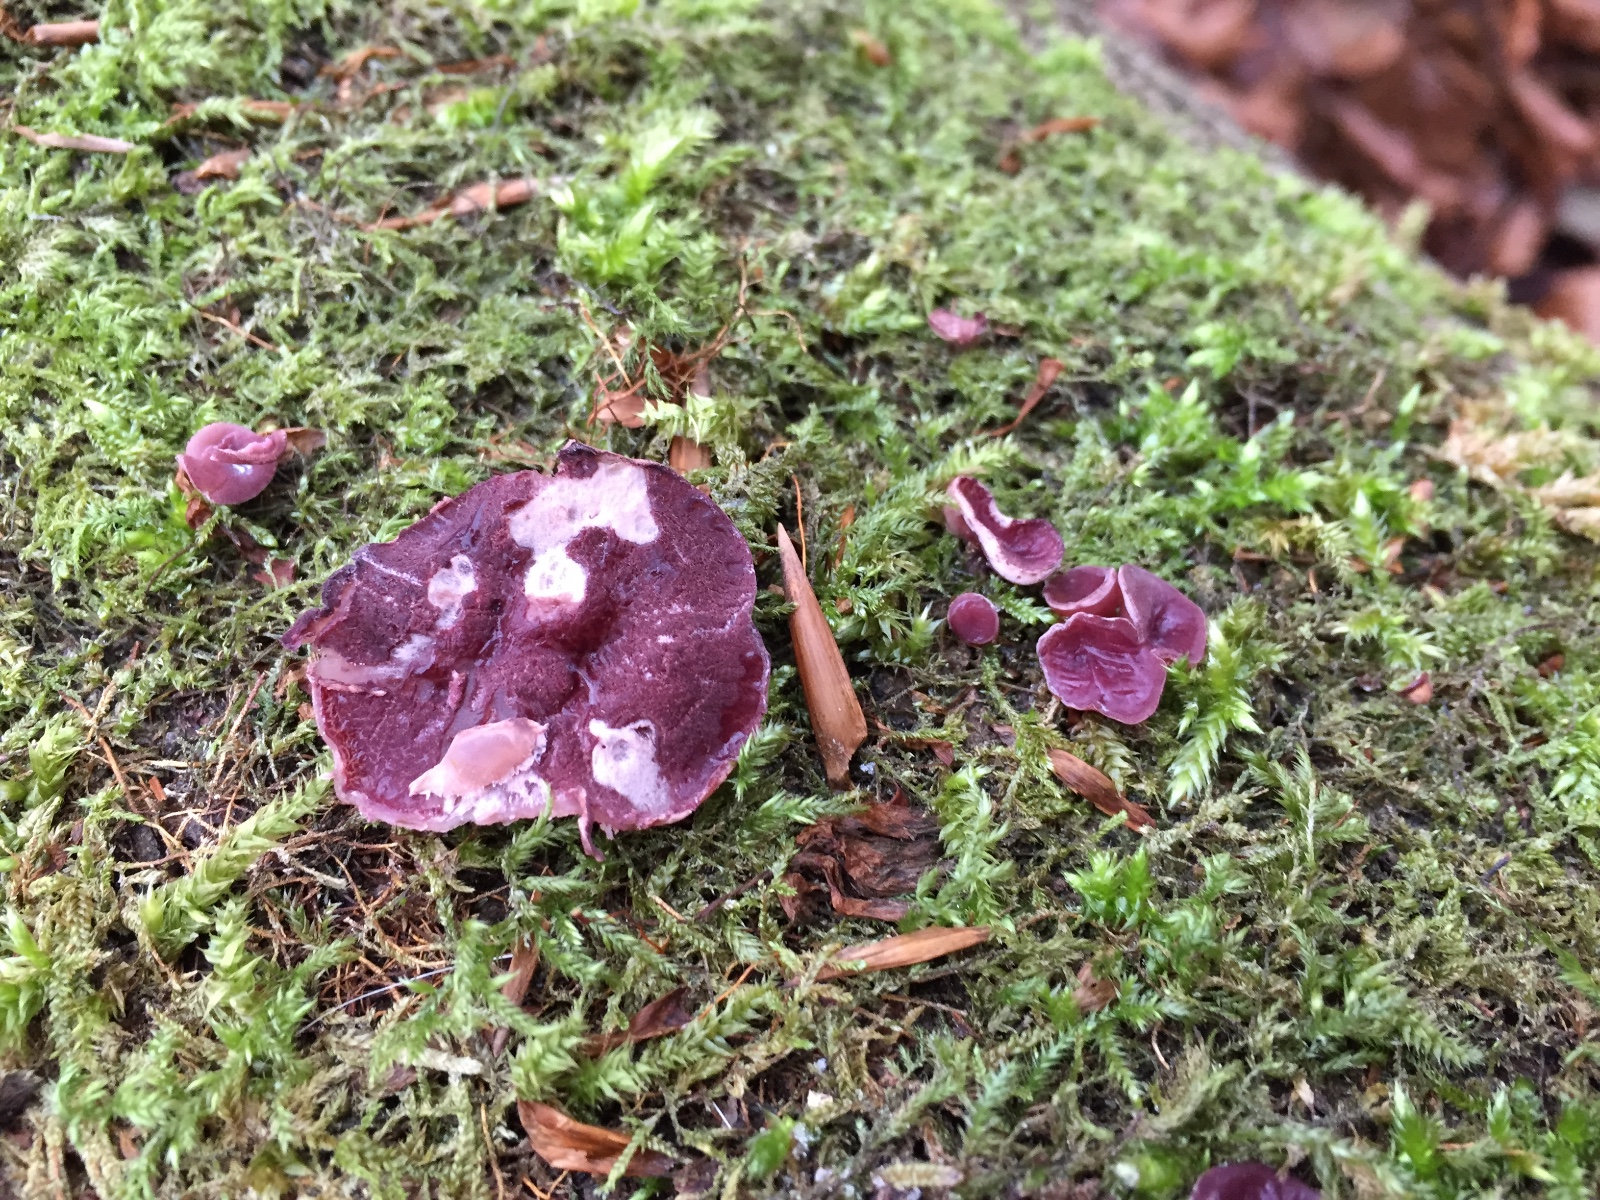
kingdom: Fungi
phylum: Ascomycota
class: Leotiomycetes
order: Helotiales
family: Gelatinodiscaceae
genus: Ascocoryne
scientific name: Ascocoryne cylichnium
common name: stor sejskive
